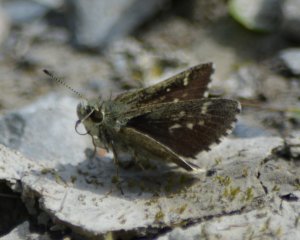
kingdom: Animalia
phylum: Arthropoda
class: Insecta
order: Lepidoptera
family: Hesperiidae
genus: Mastor
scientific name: Mastor hegon
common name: Pepper and Salt Skipper
